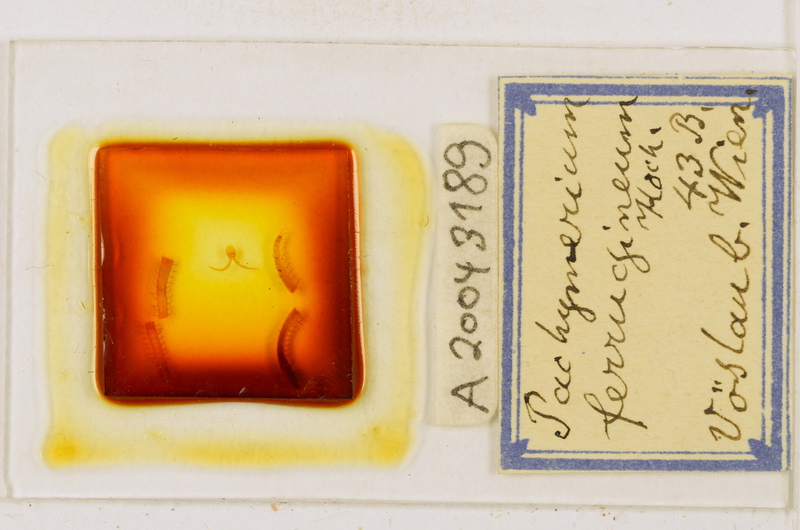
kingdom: Animalia
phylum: Arthropoda
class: Chilopoda
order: Geophilomorpha
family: Geophilidae
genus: Pachymerium
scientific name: Pachymerium ferrugineum
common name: Centipede
